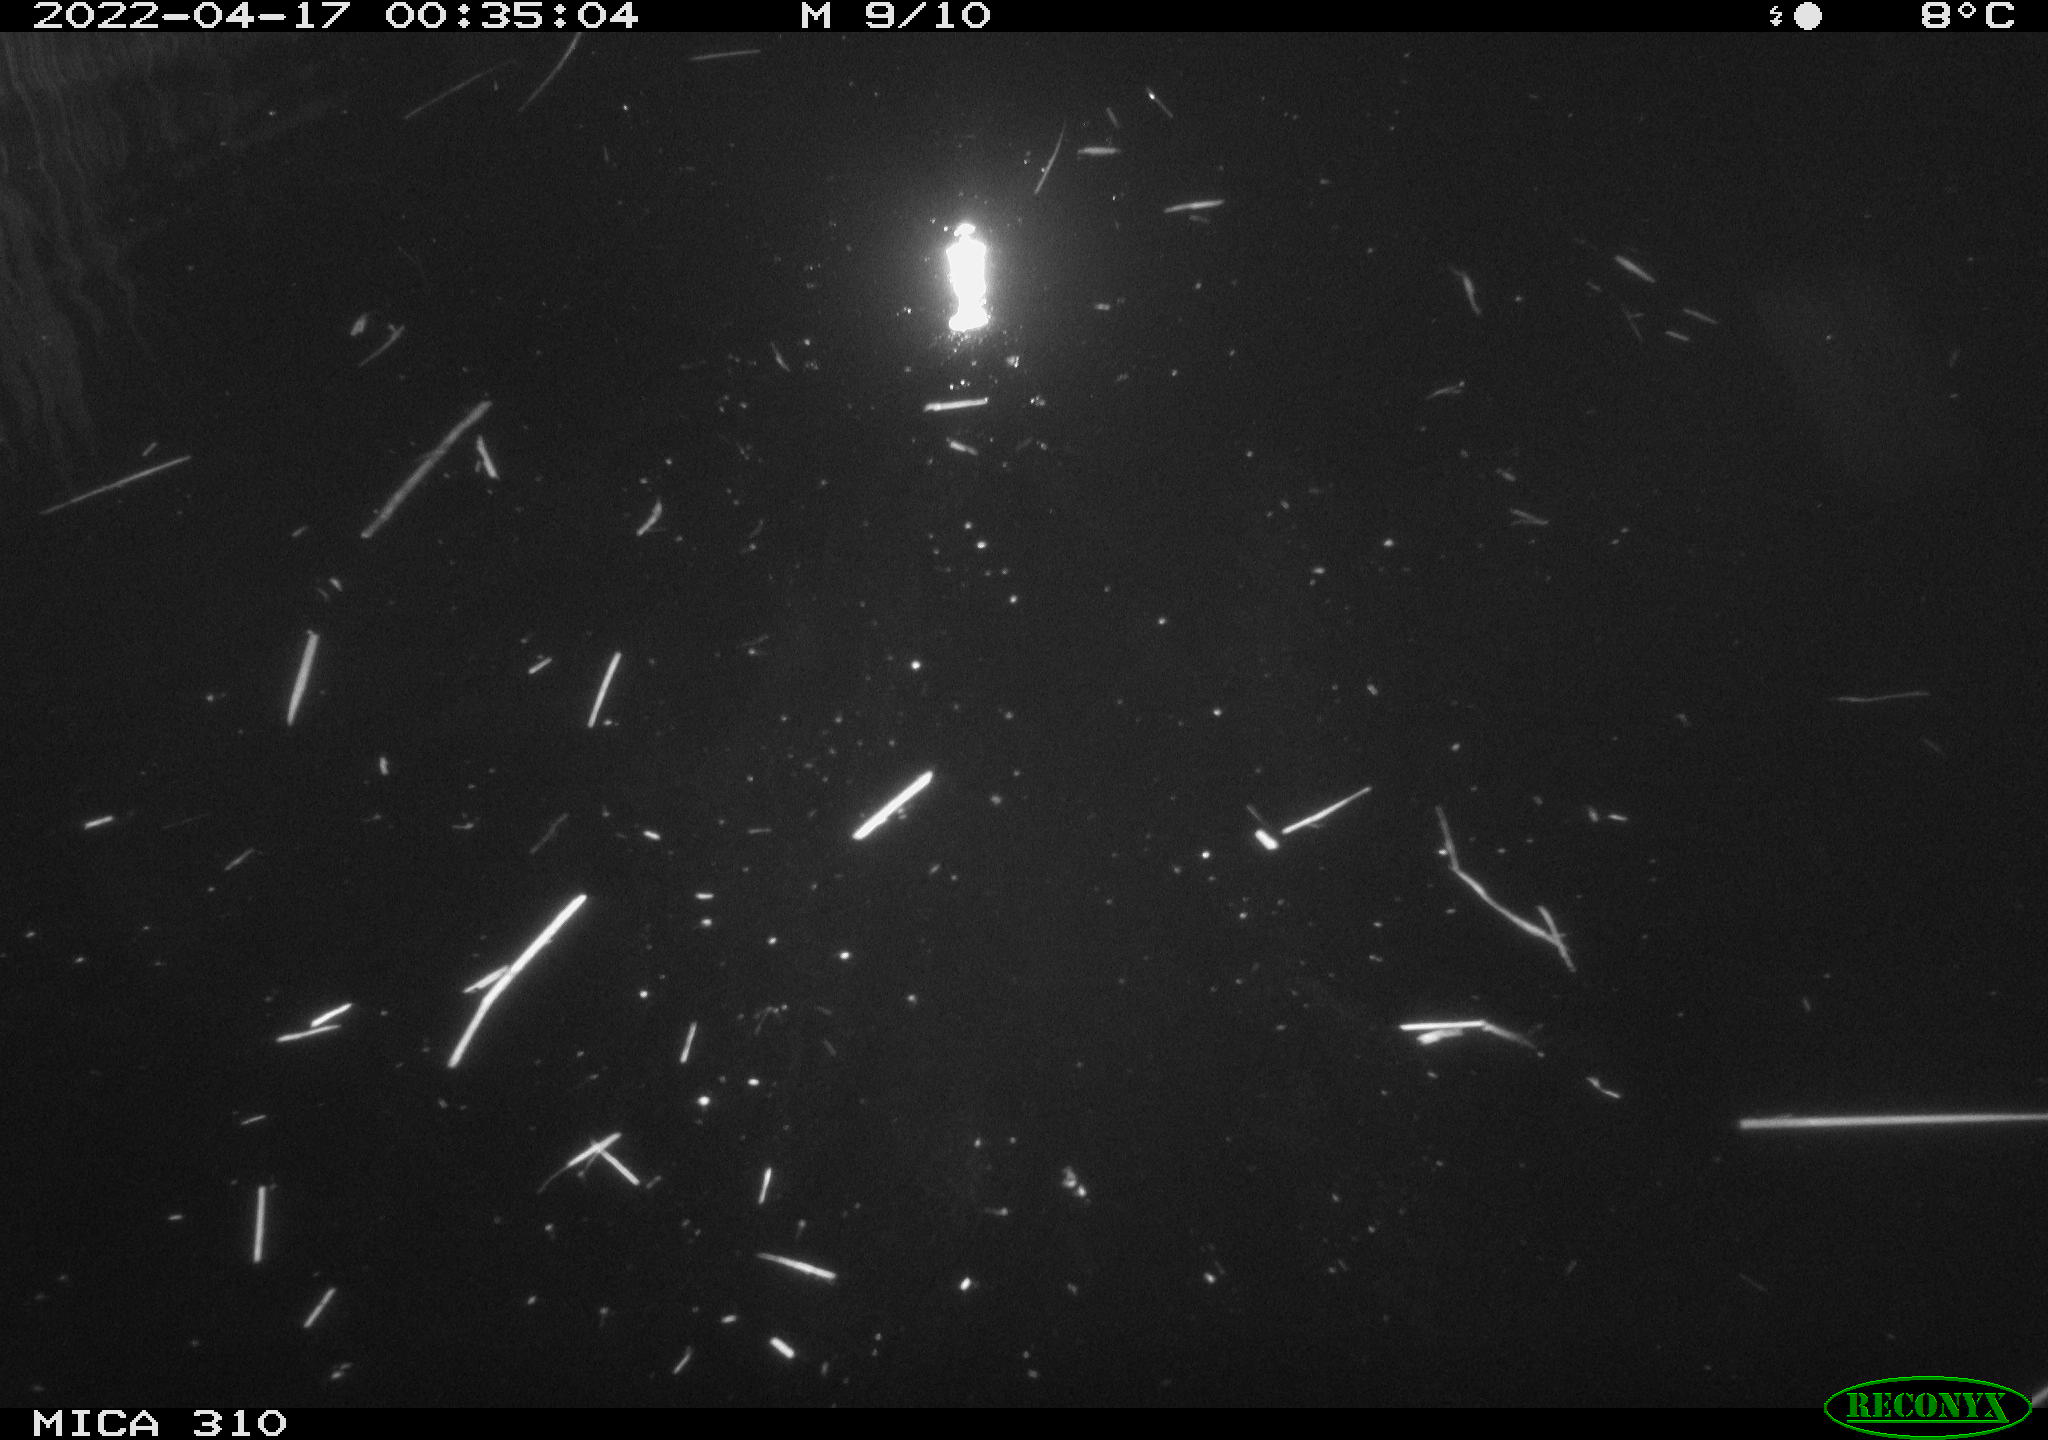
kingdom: Animalia
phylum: Chordata
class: Aves
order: Anseriformes
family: Anatidae
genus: Anas
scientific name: Anas platyrhynchos
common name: Mallard
